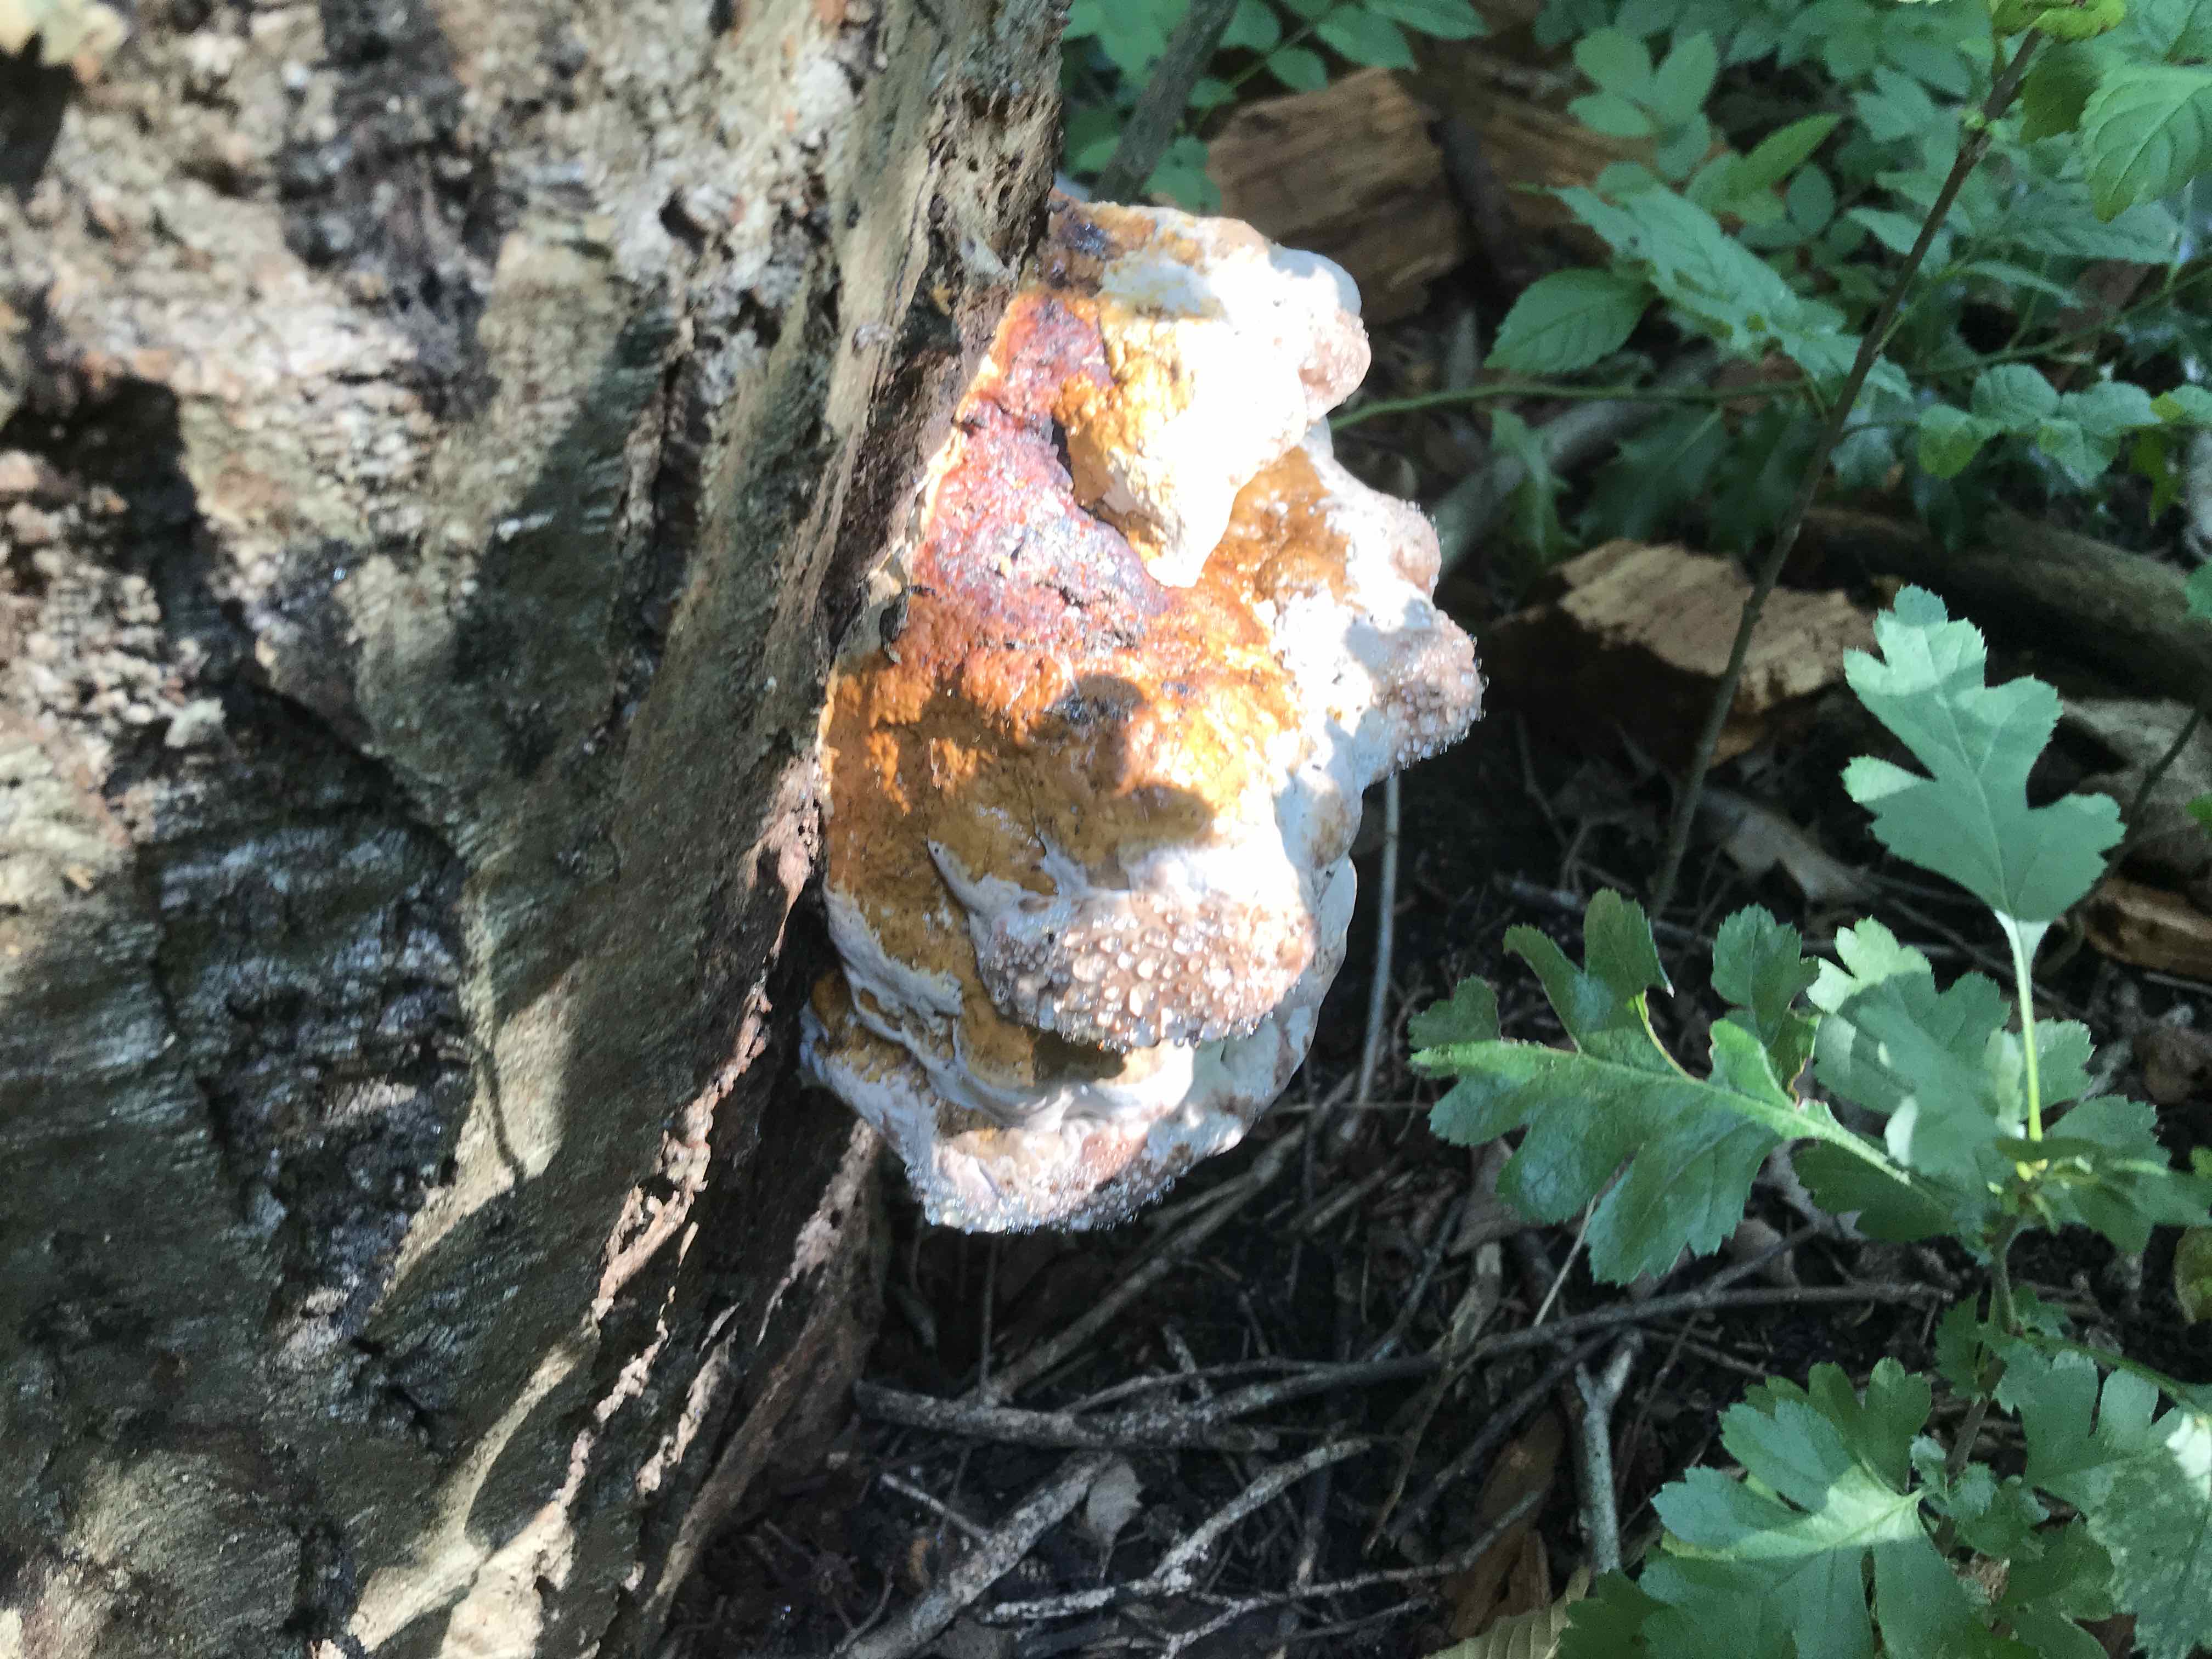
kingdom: Fungi
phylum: Basidiomycota
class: Agaricomycetes
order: Polyporales
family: Fomitopsidaceae
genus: Fomitopsis
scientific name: Fomitopsis pinicola
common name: randbæltet hovporesvamp
